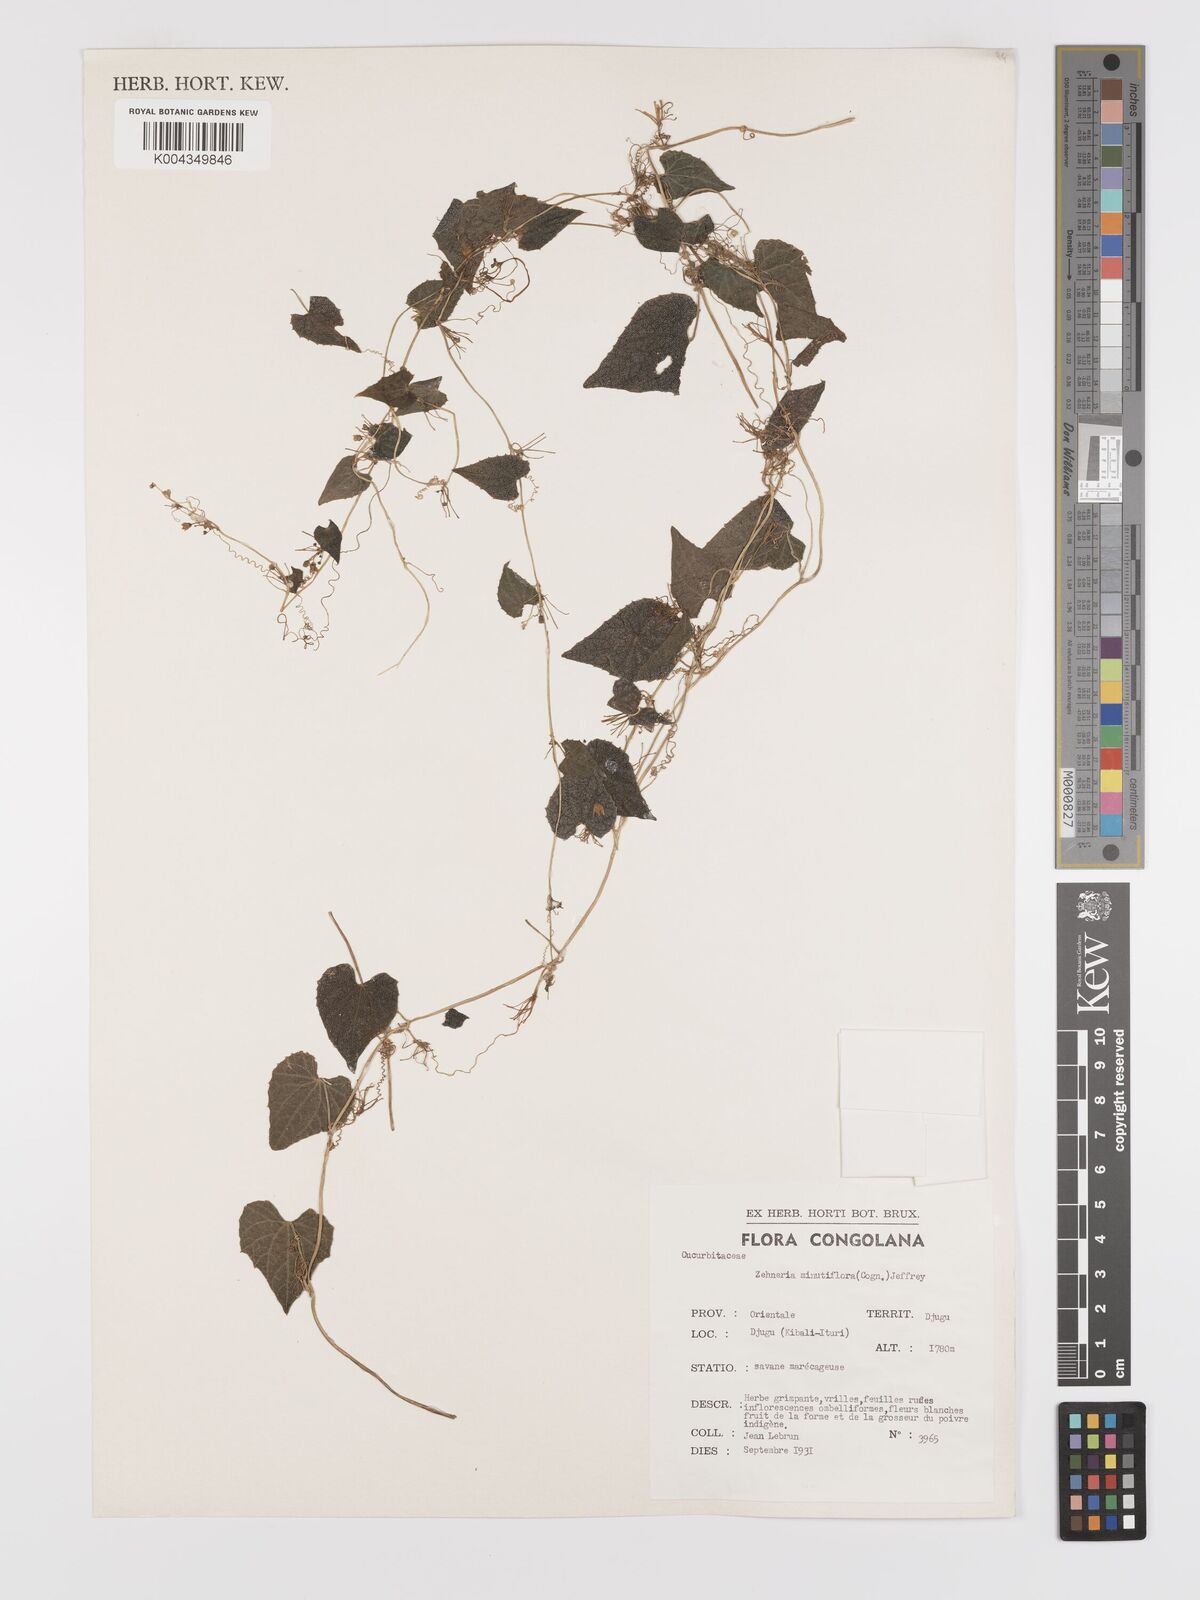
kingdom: Plantae
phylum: Tracheophyta
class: Magnoliopsida
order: Cucurbitales
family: Cucurbitaceae
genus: Zehneria
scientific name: Zehneria minutiflora
